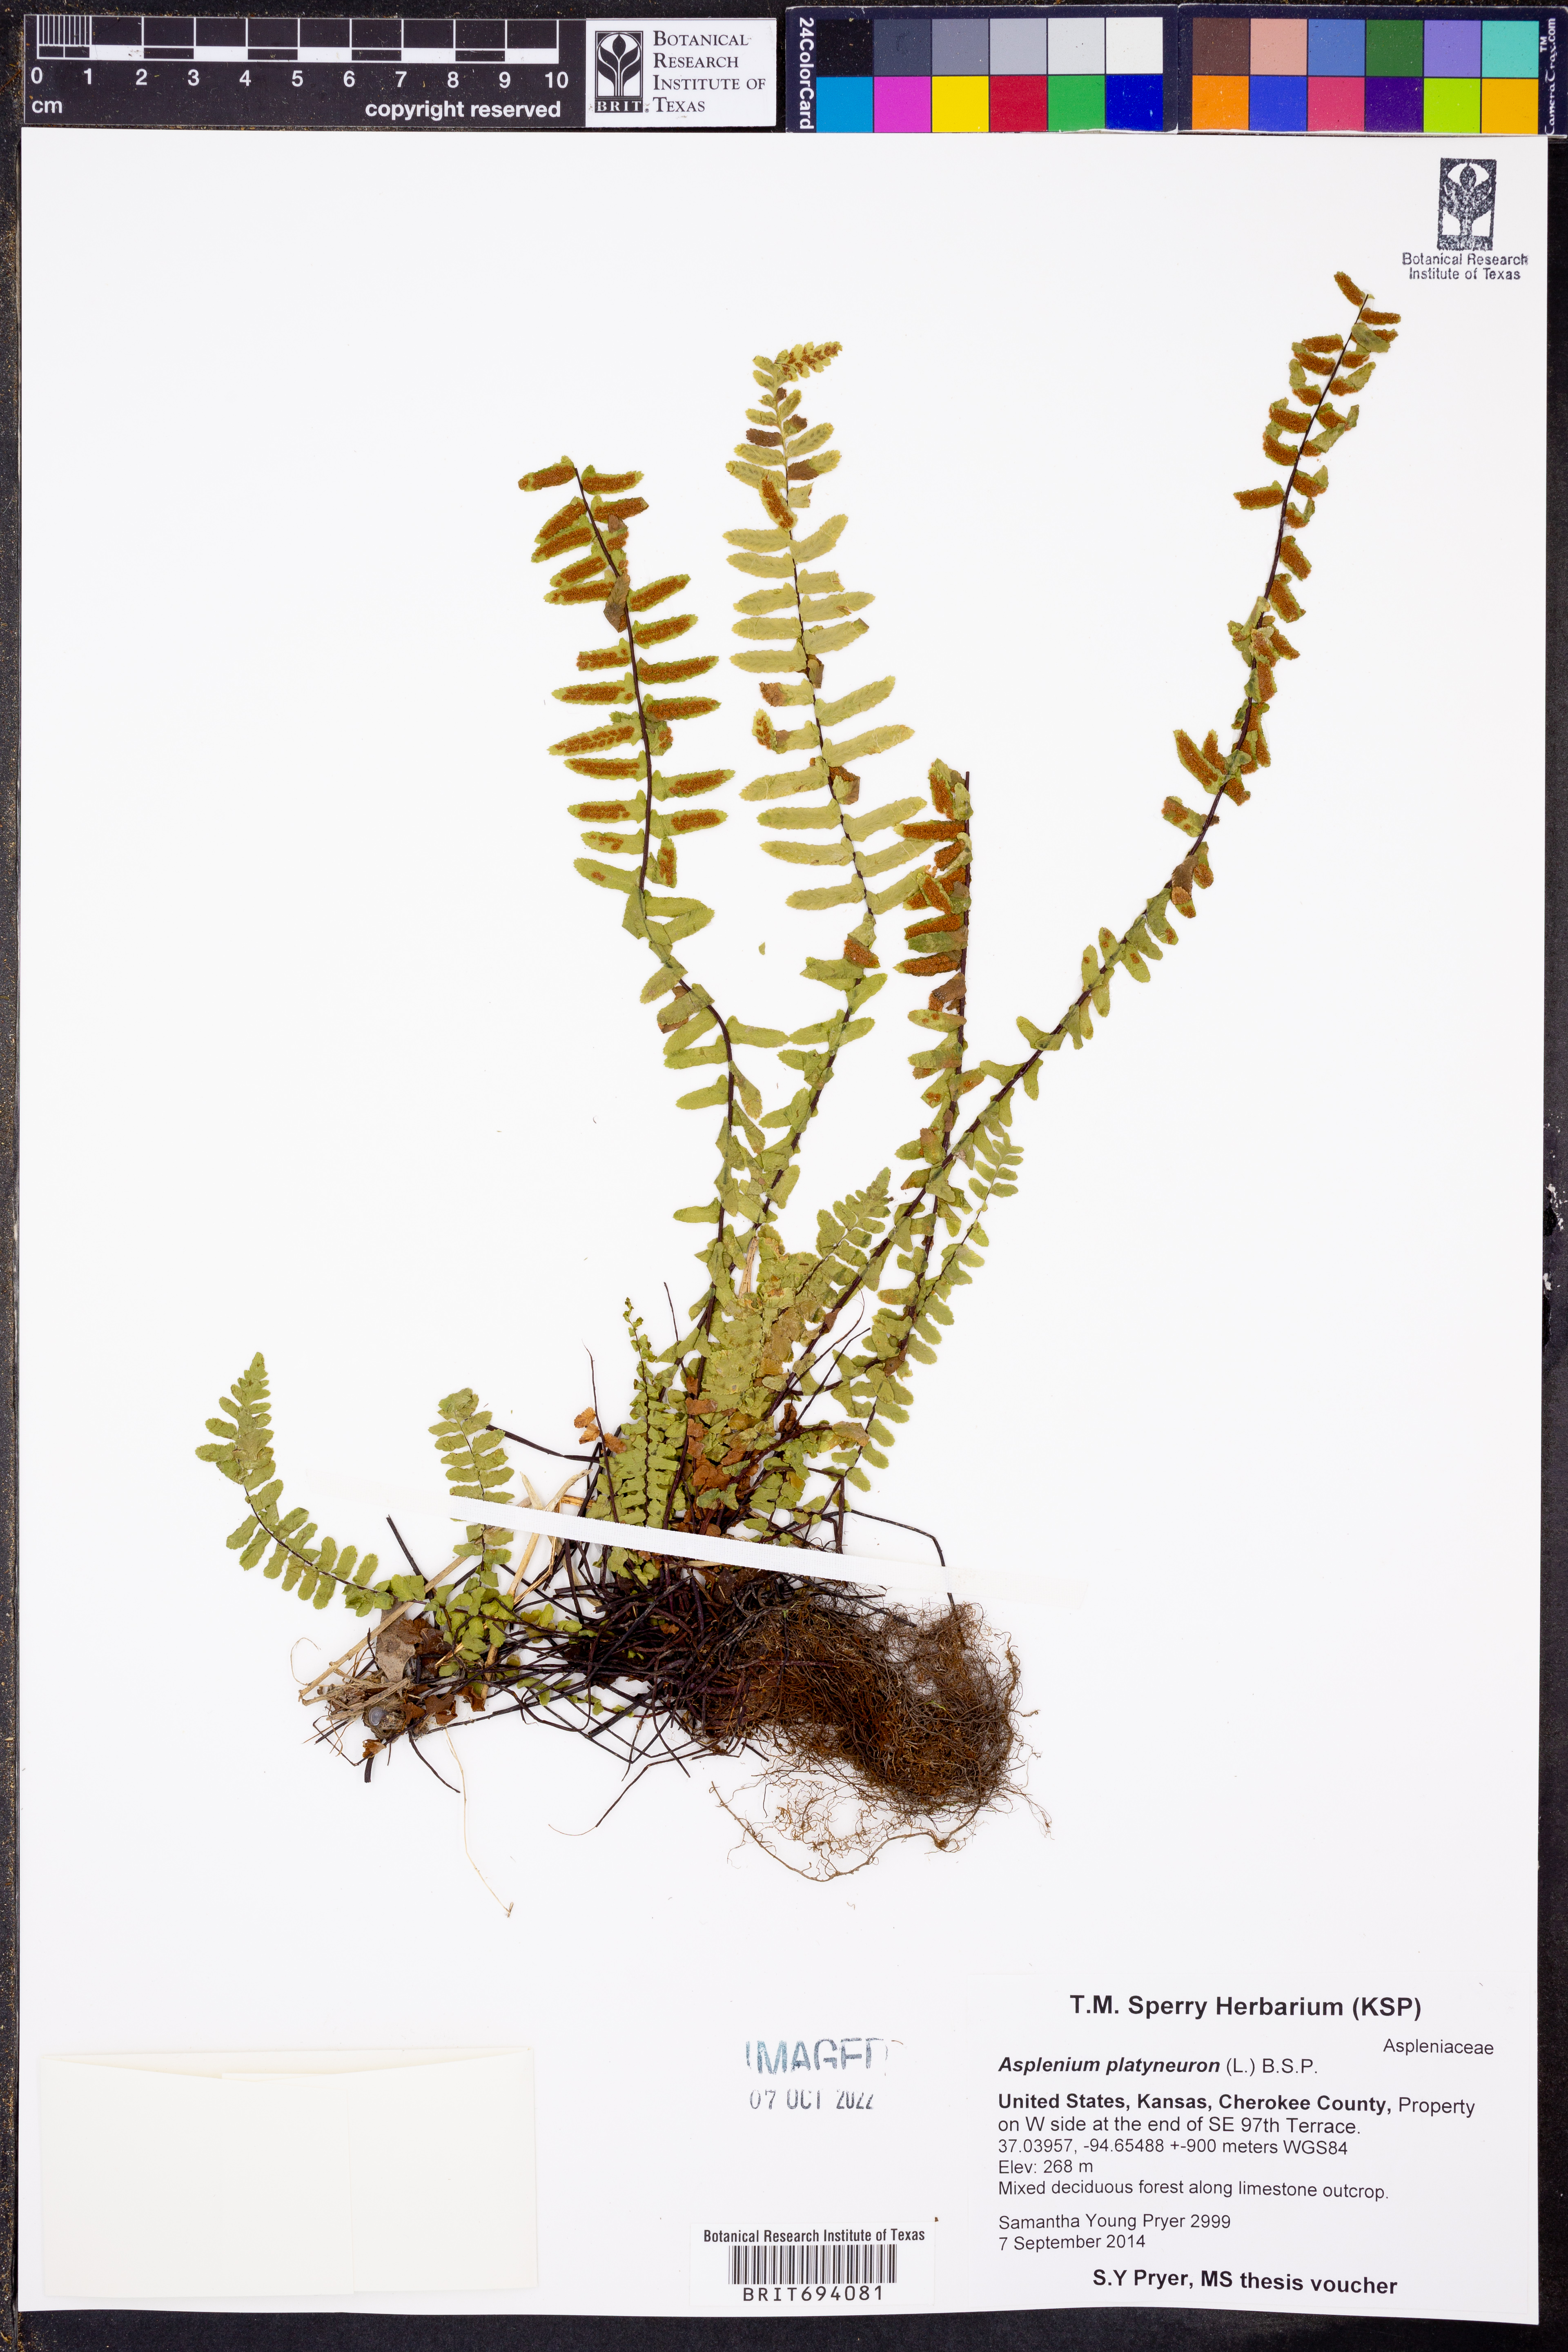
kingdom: Plantae
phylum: Tracheophyta
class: Polypodiopsida
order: Polypodiales
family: Aspleniaceae
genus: Asplenium
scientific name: Asplenium platyneuron
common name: Ebony spleenwort
